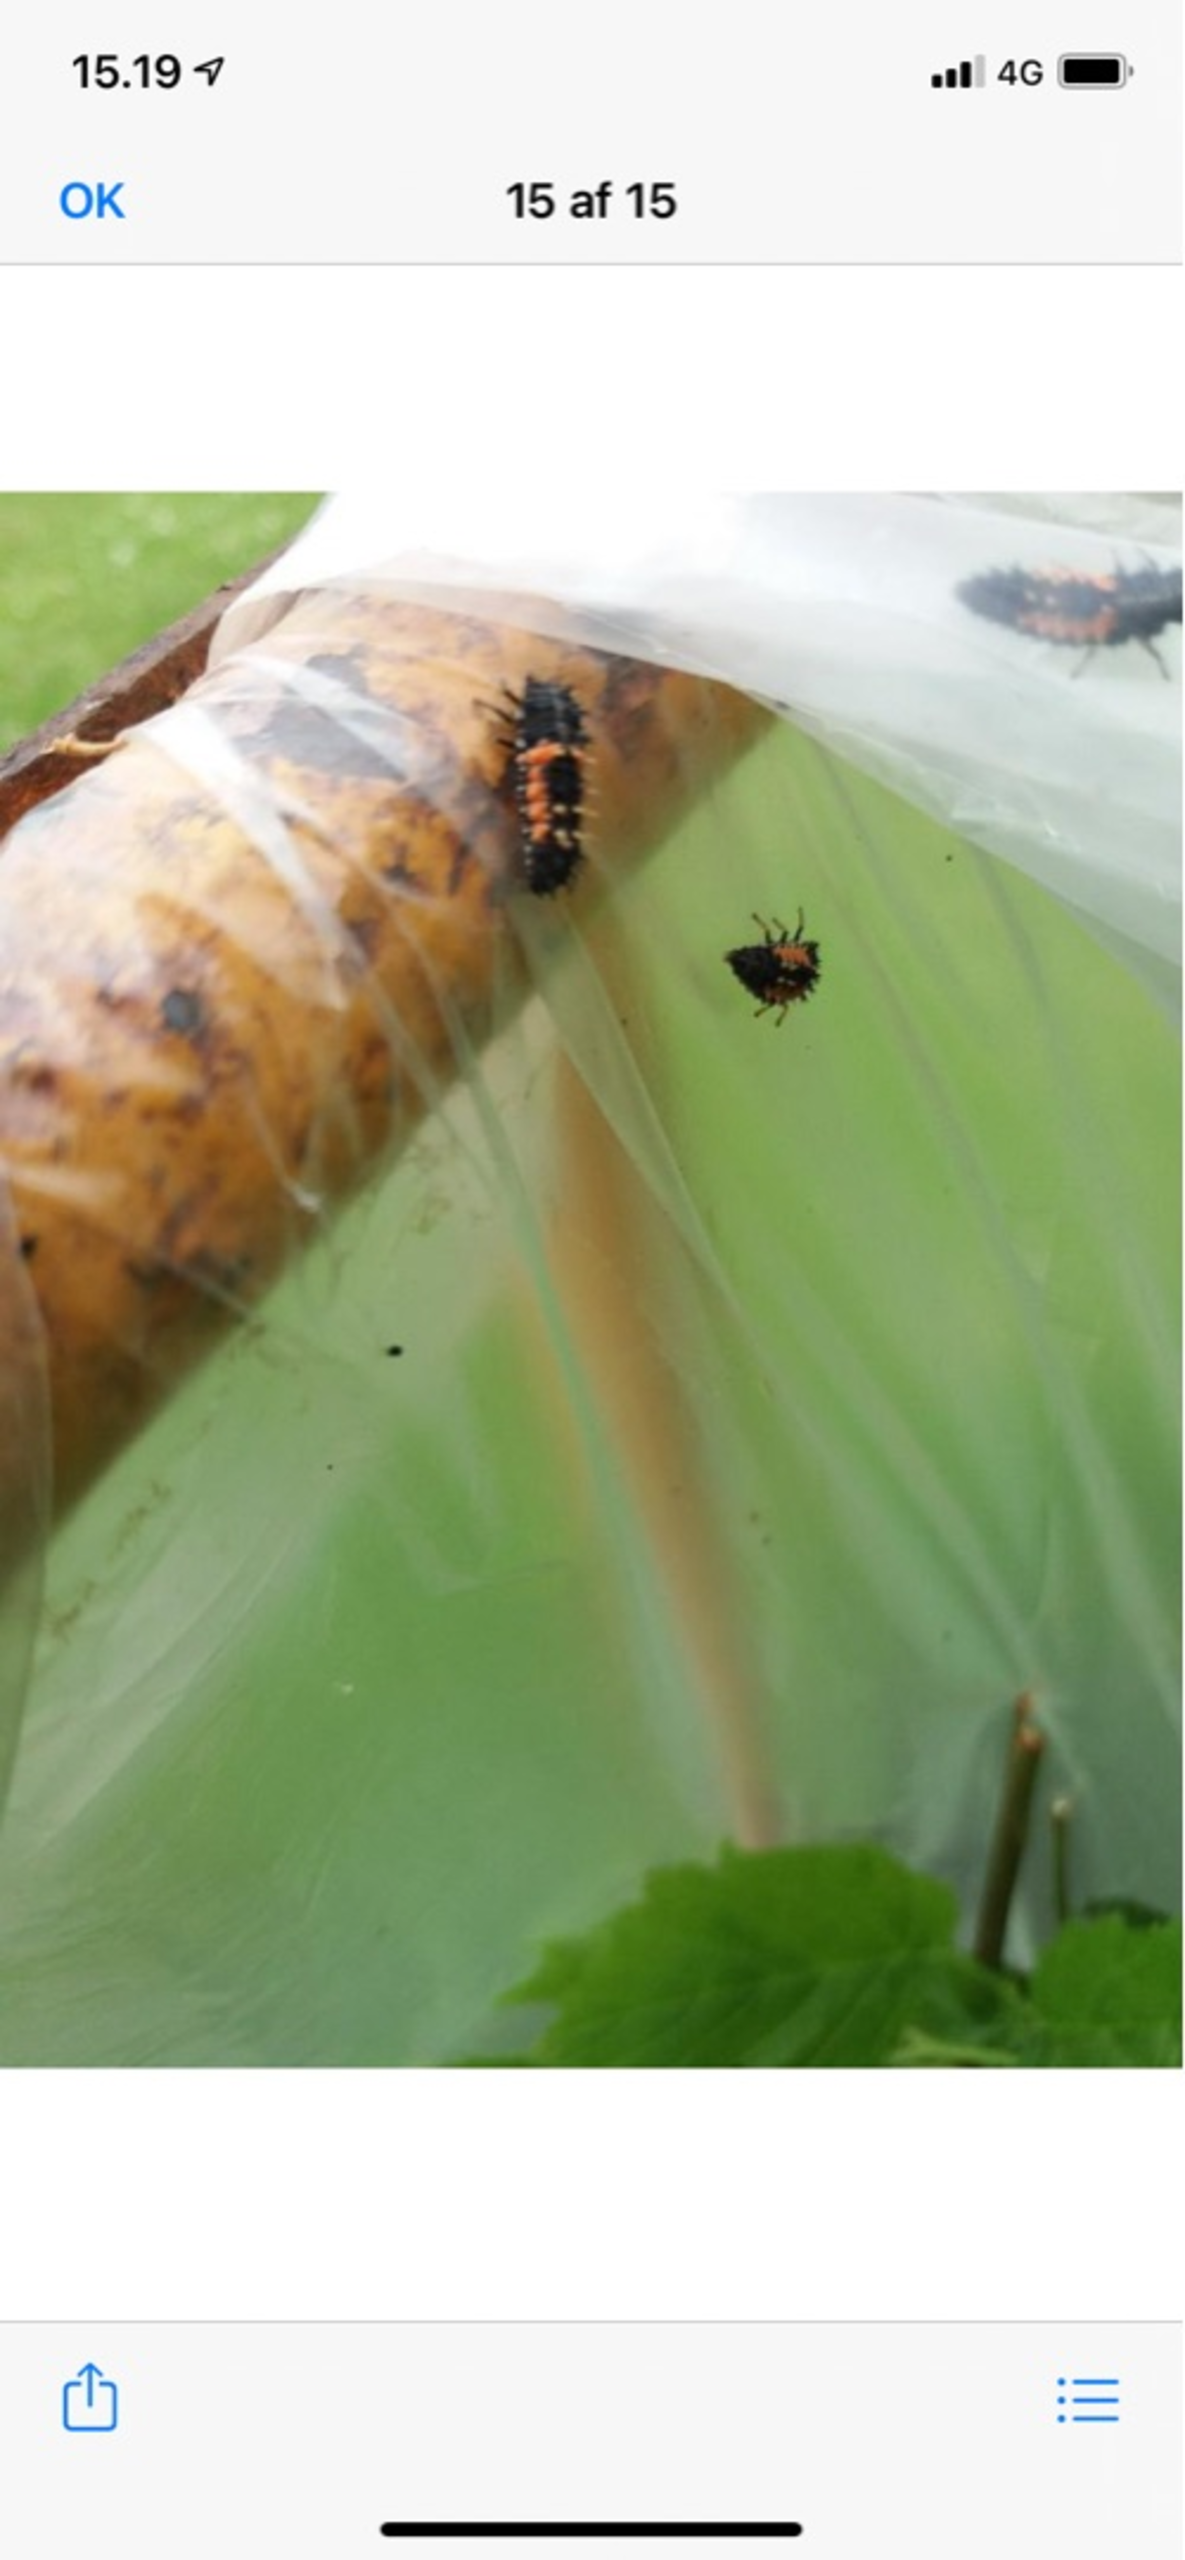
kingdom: Animalia
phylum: Arthropoda
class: Insecta
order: Coleoptera
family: Coccinellidae
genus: Harmonia
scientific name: Harmonia axyridis
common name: Harlekinmariehøne
